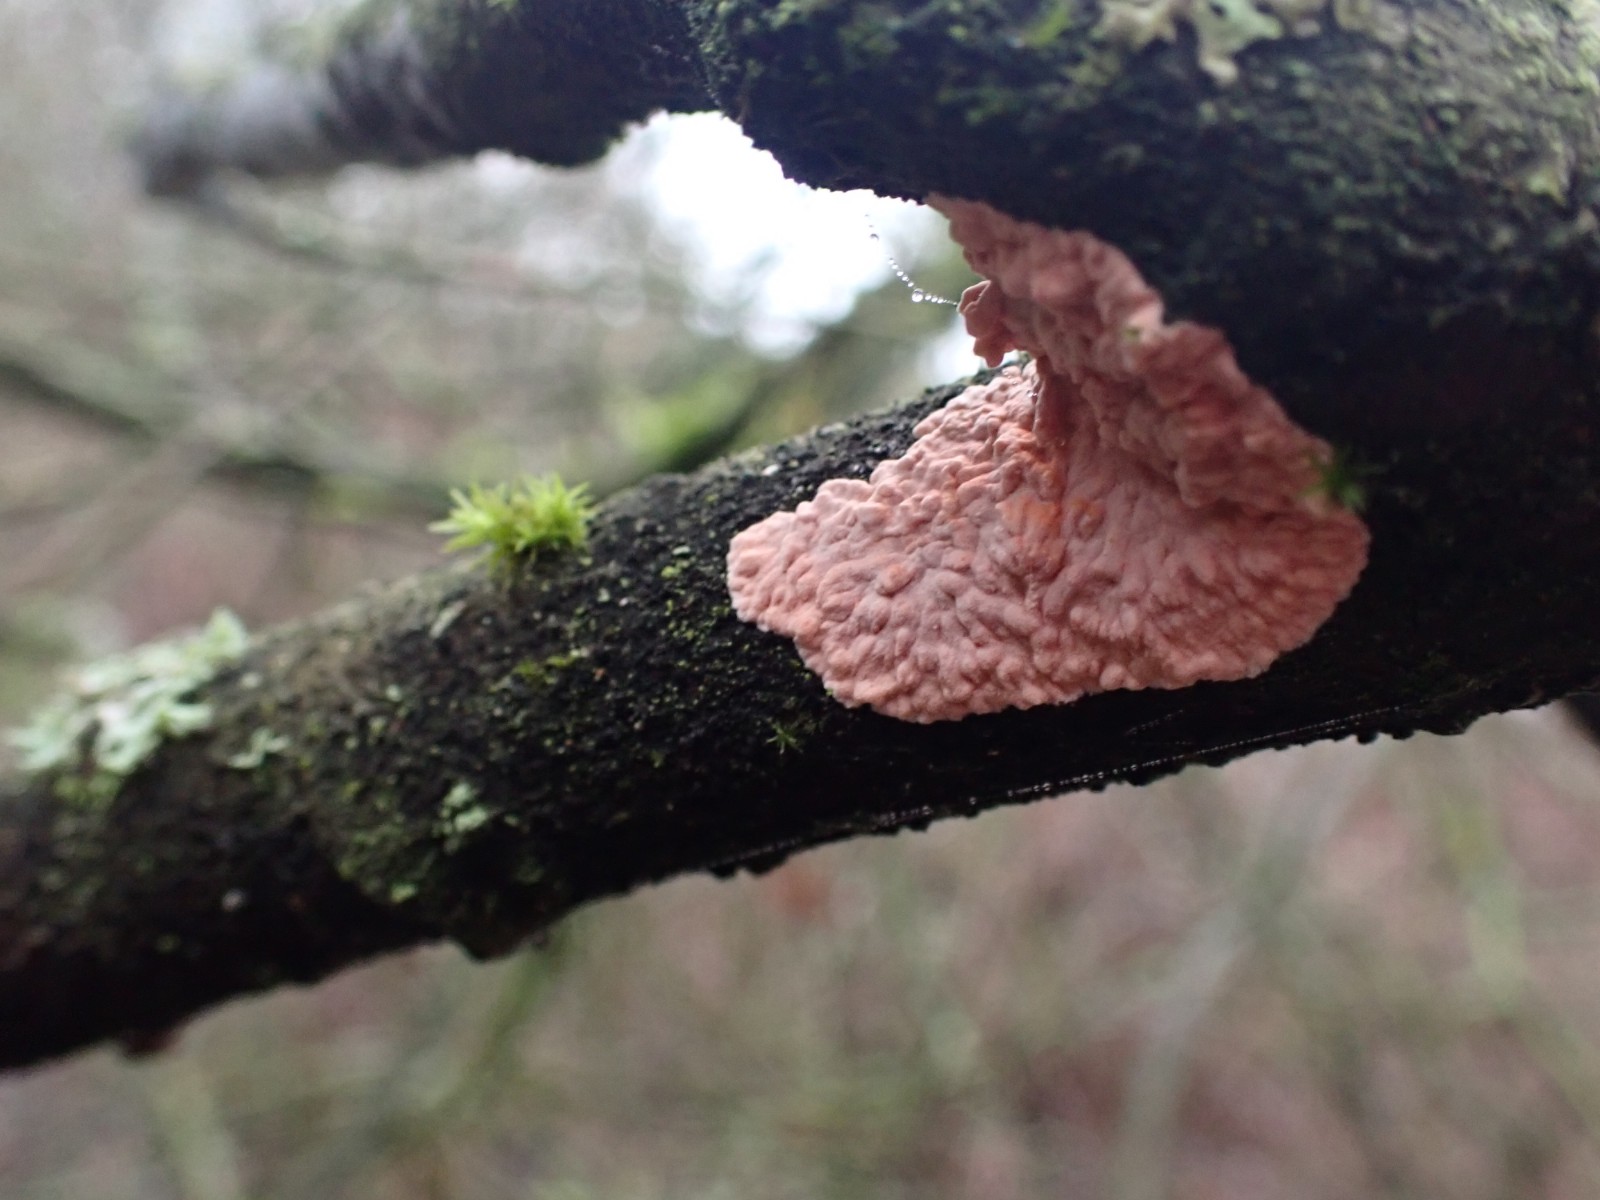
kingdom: Fungi
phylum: Basidiomycota
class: Agaricomycetes
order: Corticiales
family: Corticiaceae
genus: Corticium
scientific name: Corticium roseum
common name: rosa barkskind
